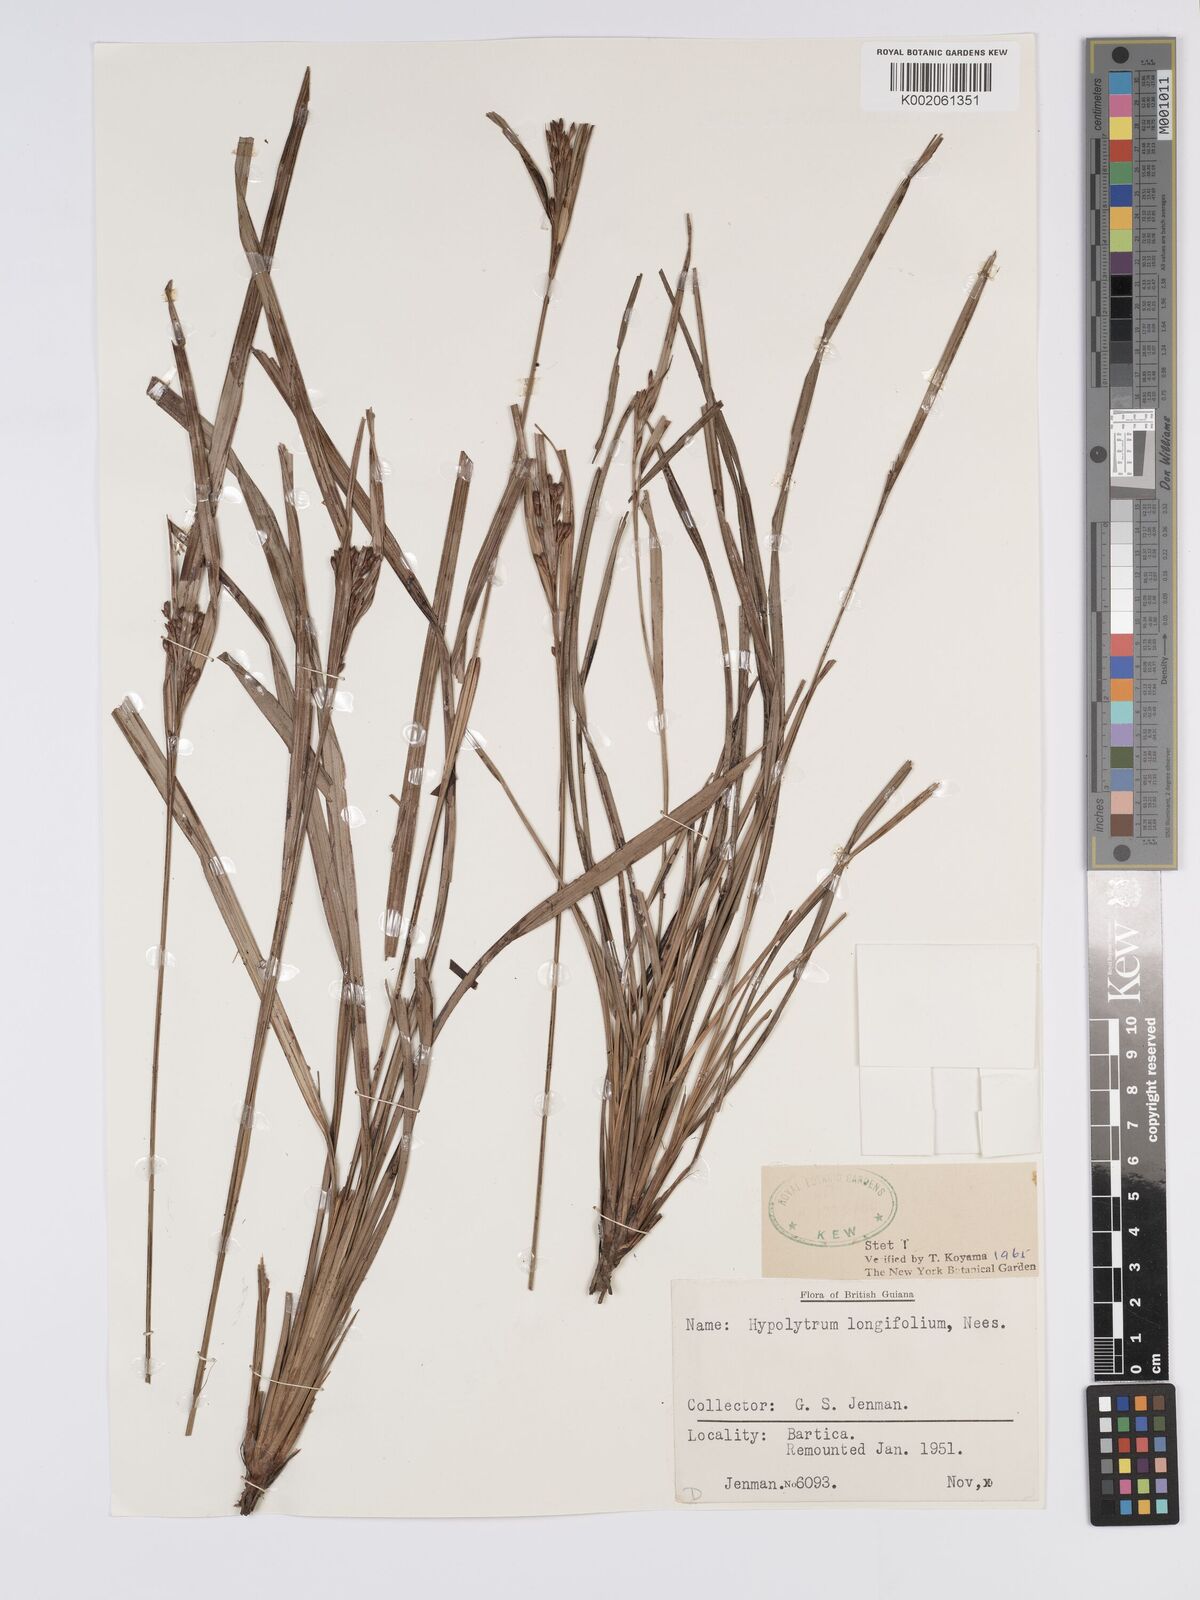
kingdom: Plantae
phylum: Tracheophyta
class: Liliopsida
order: Poales
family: Cyperaceae
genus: Hypolytrum
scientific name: Hypolytrum longifolium
